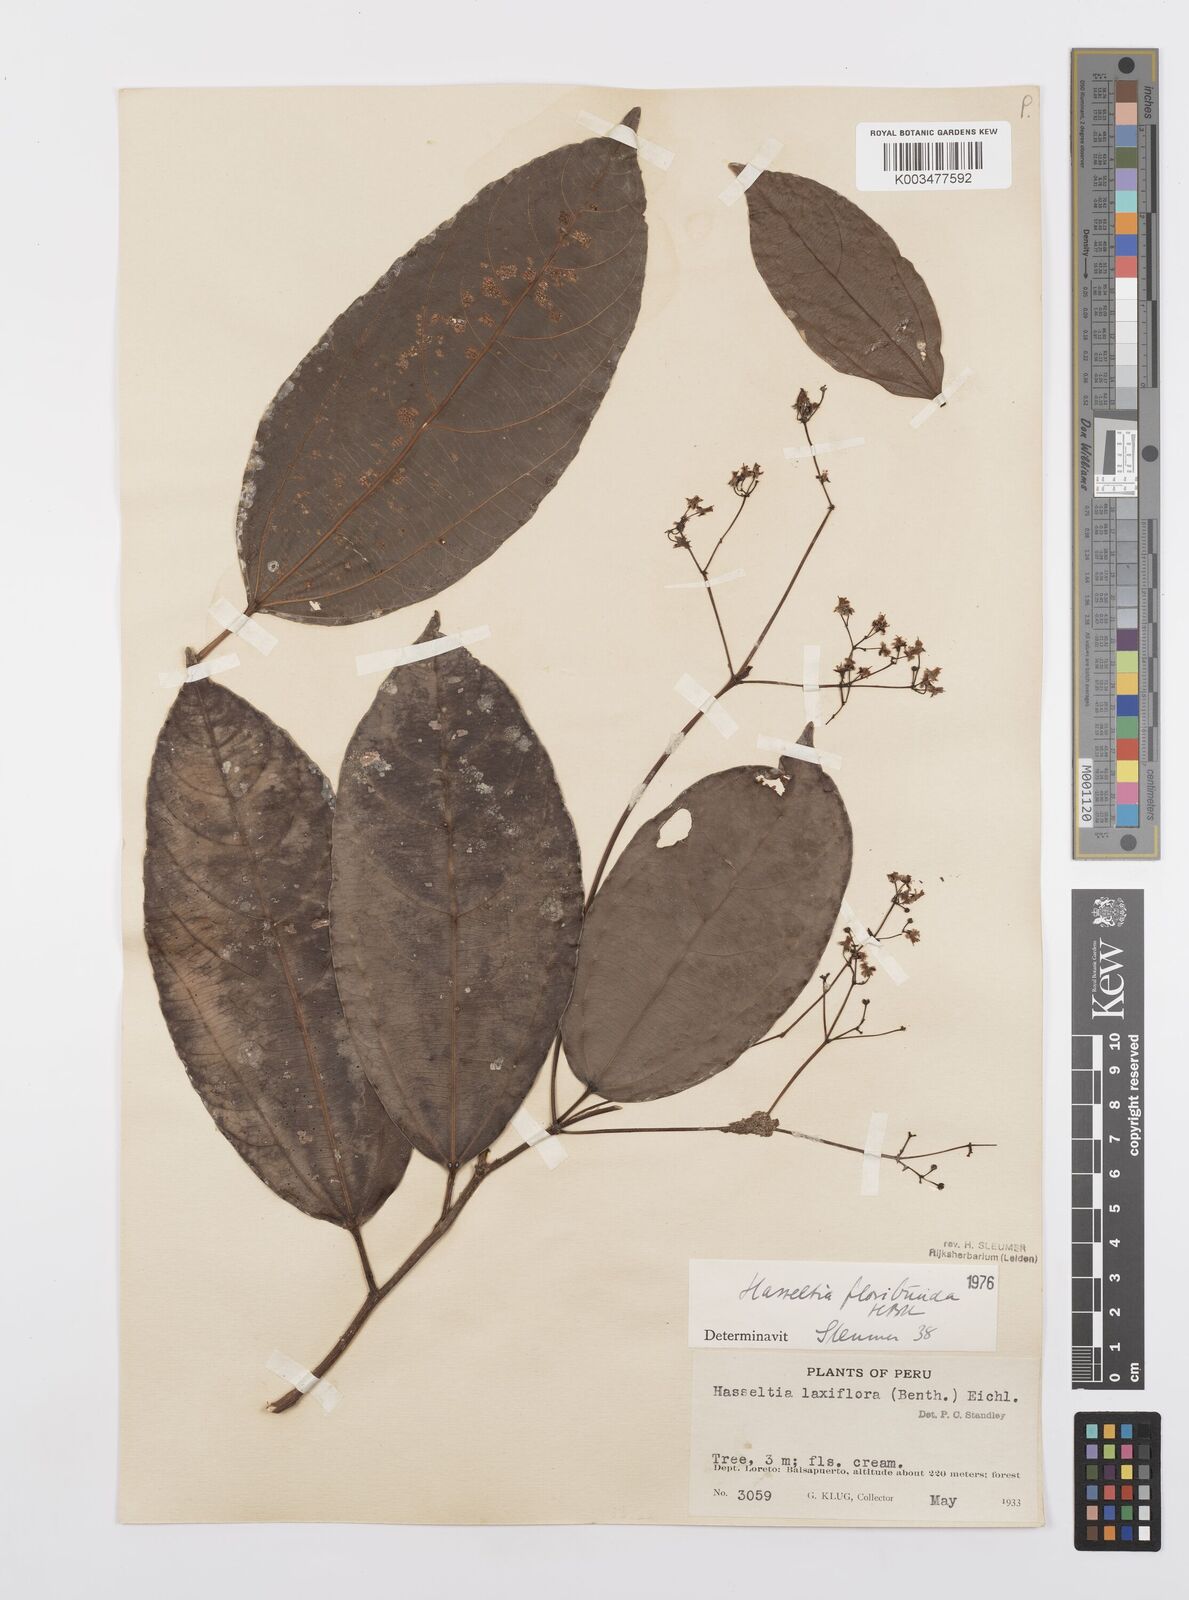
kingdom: Plantae
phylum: Tracheophyta
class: Magnoliopsida
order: Malpighiales
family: Salicaceae
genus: Hasseltia
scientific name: Hasseltia floribunda
